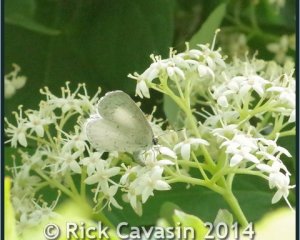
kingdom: Animalia
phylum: Arthropoda
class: Insecta
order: Lepidoptera
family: Lycaenidae
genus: Cyaniris
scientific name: Cyaniris neglecta
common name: Summer Azure
